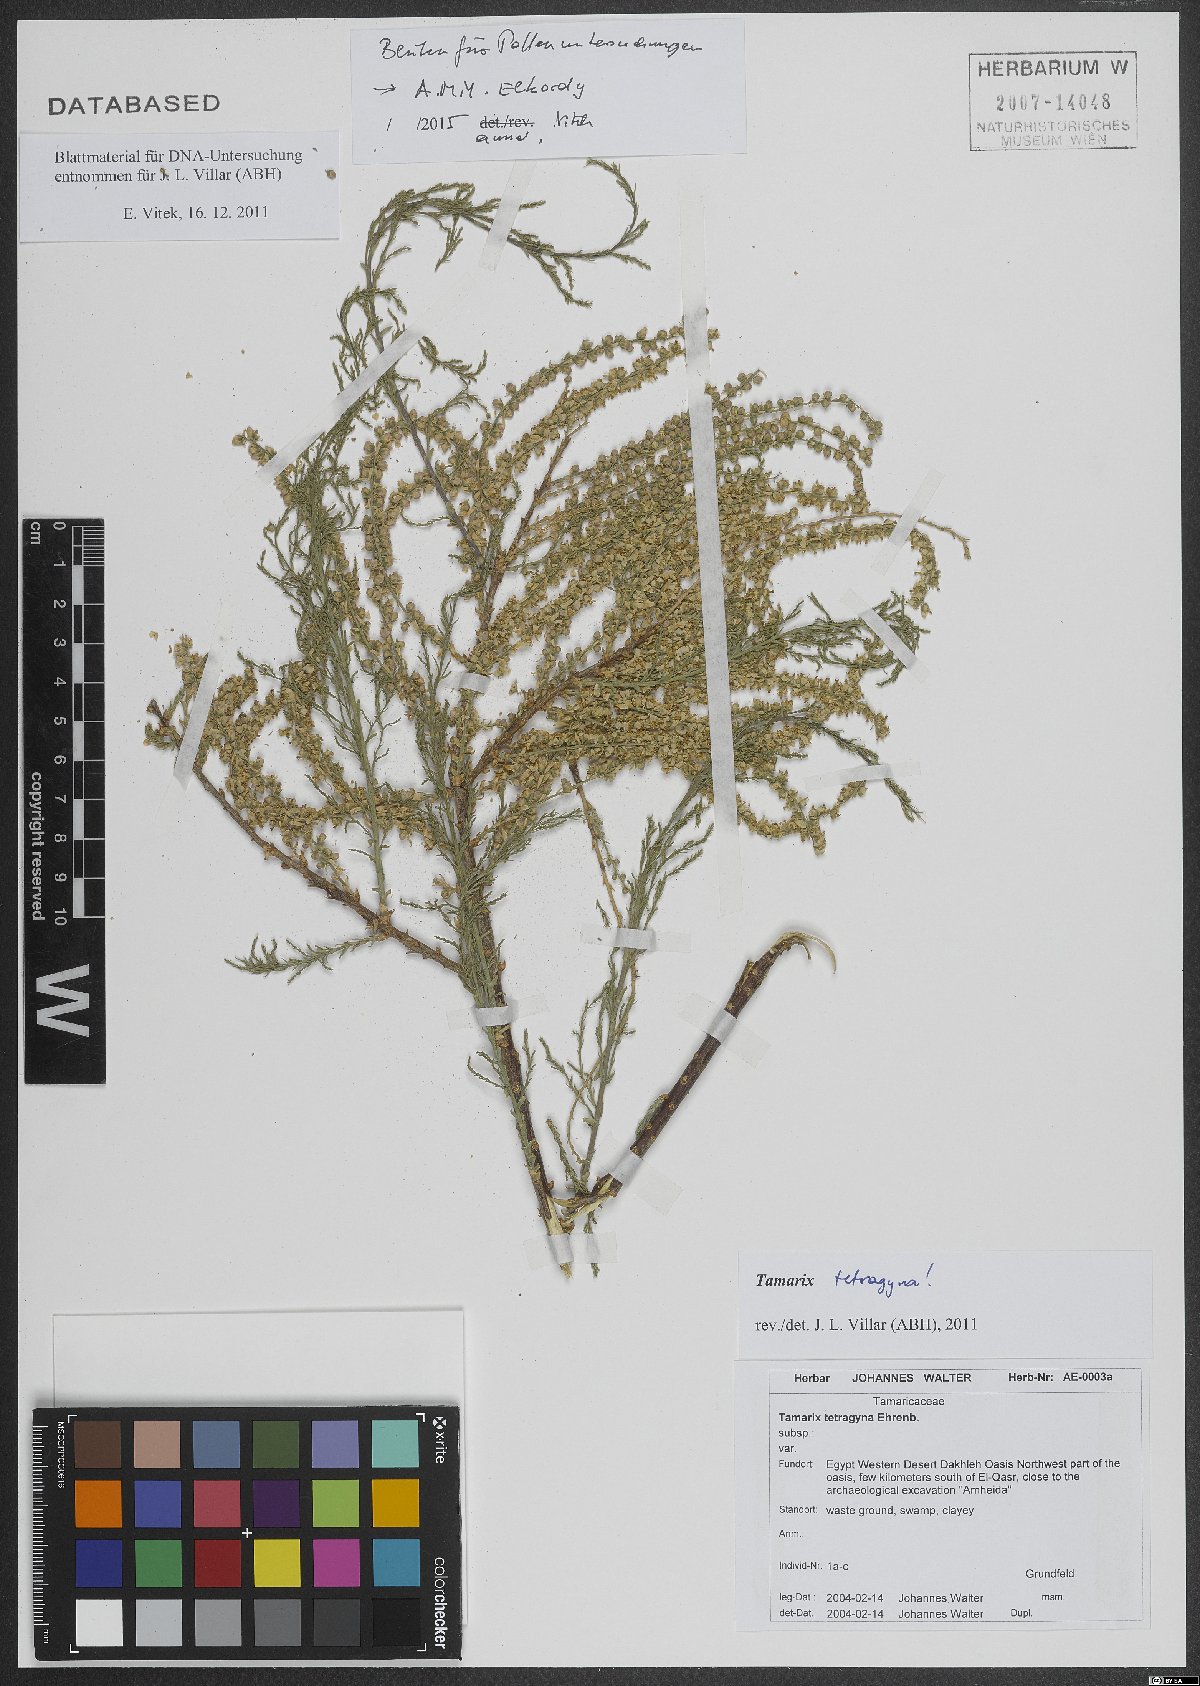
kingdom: Plantae
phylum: Tracheophyta
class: Magnoliopsida
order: Caryophyllales
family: Tamaricaceae
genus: Tamarix
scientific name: Tamarix tetragyna
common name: Four-stamen tamarisk
